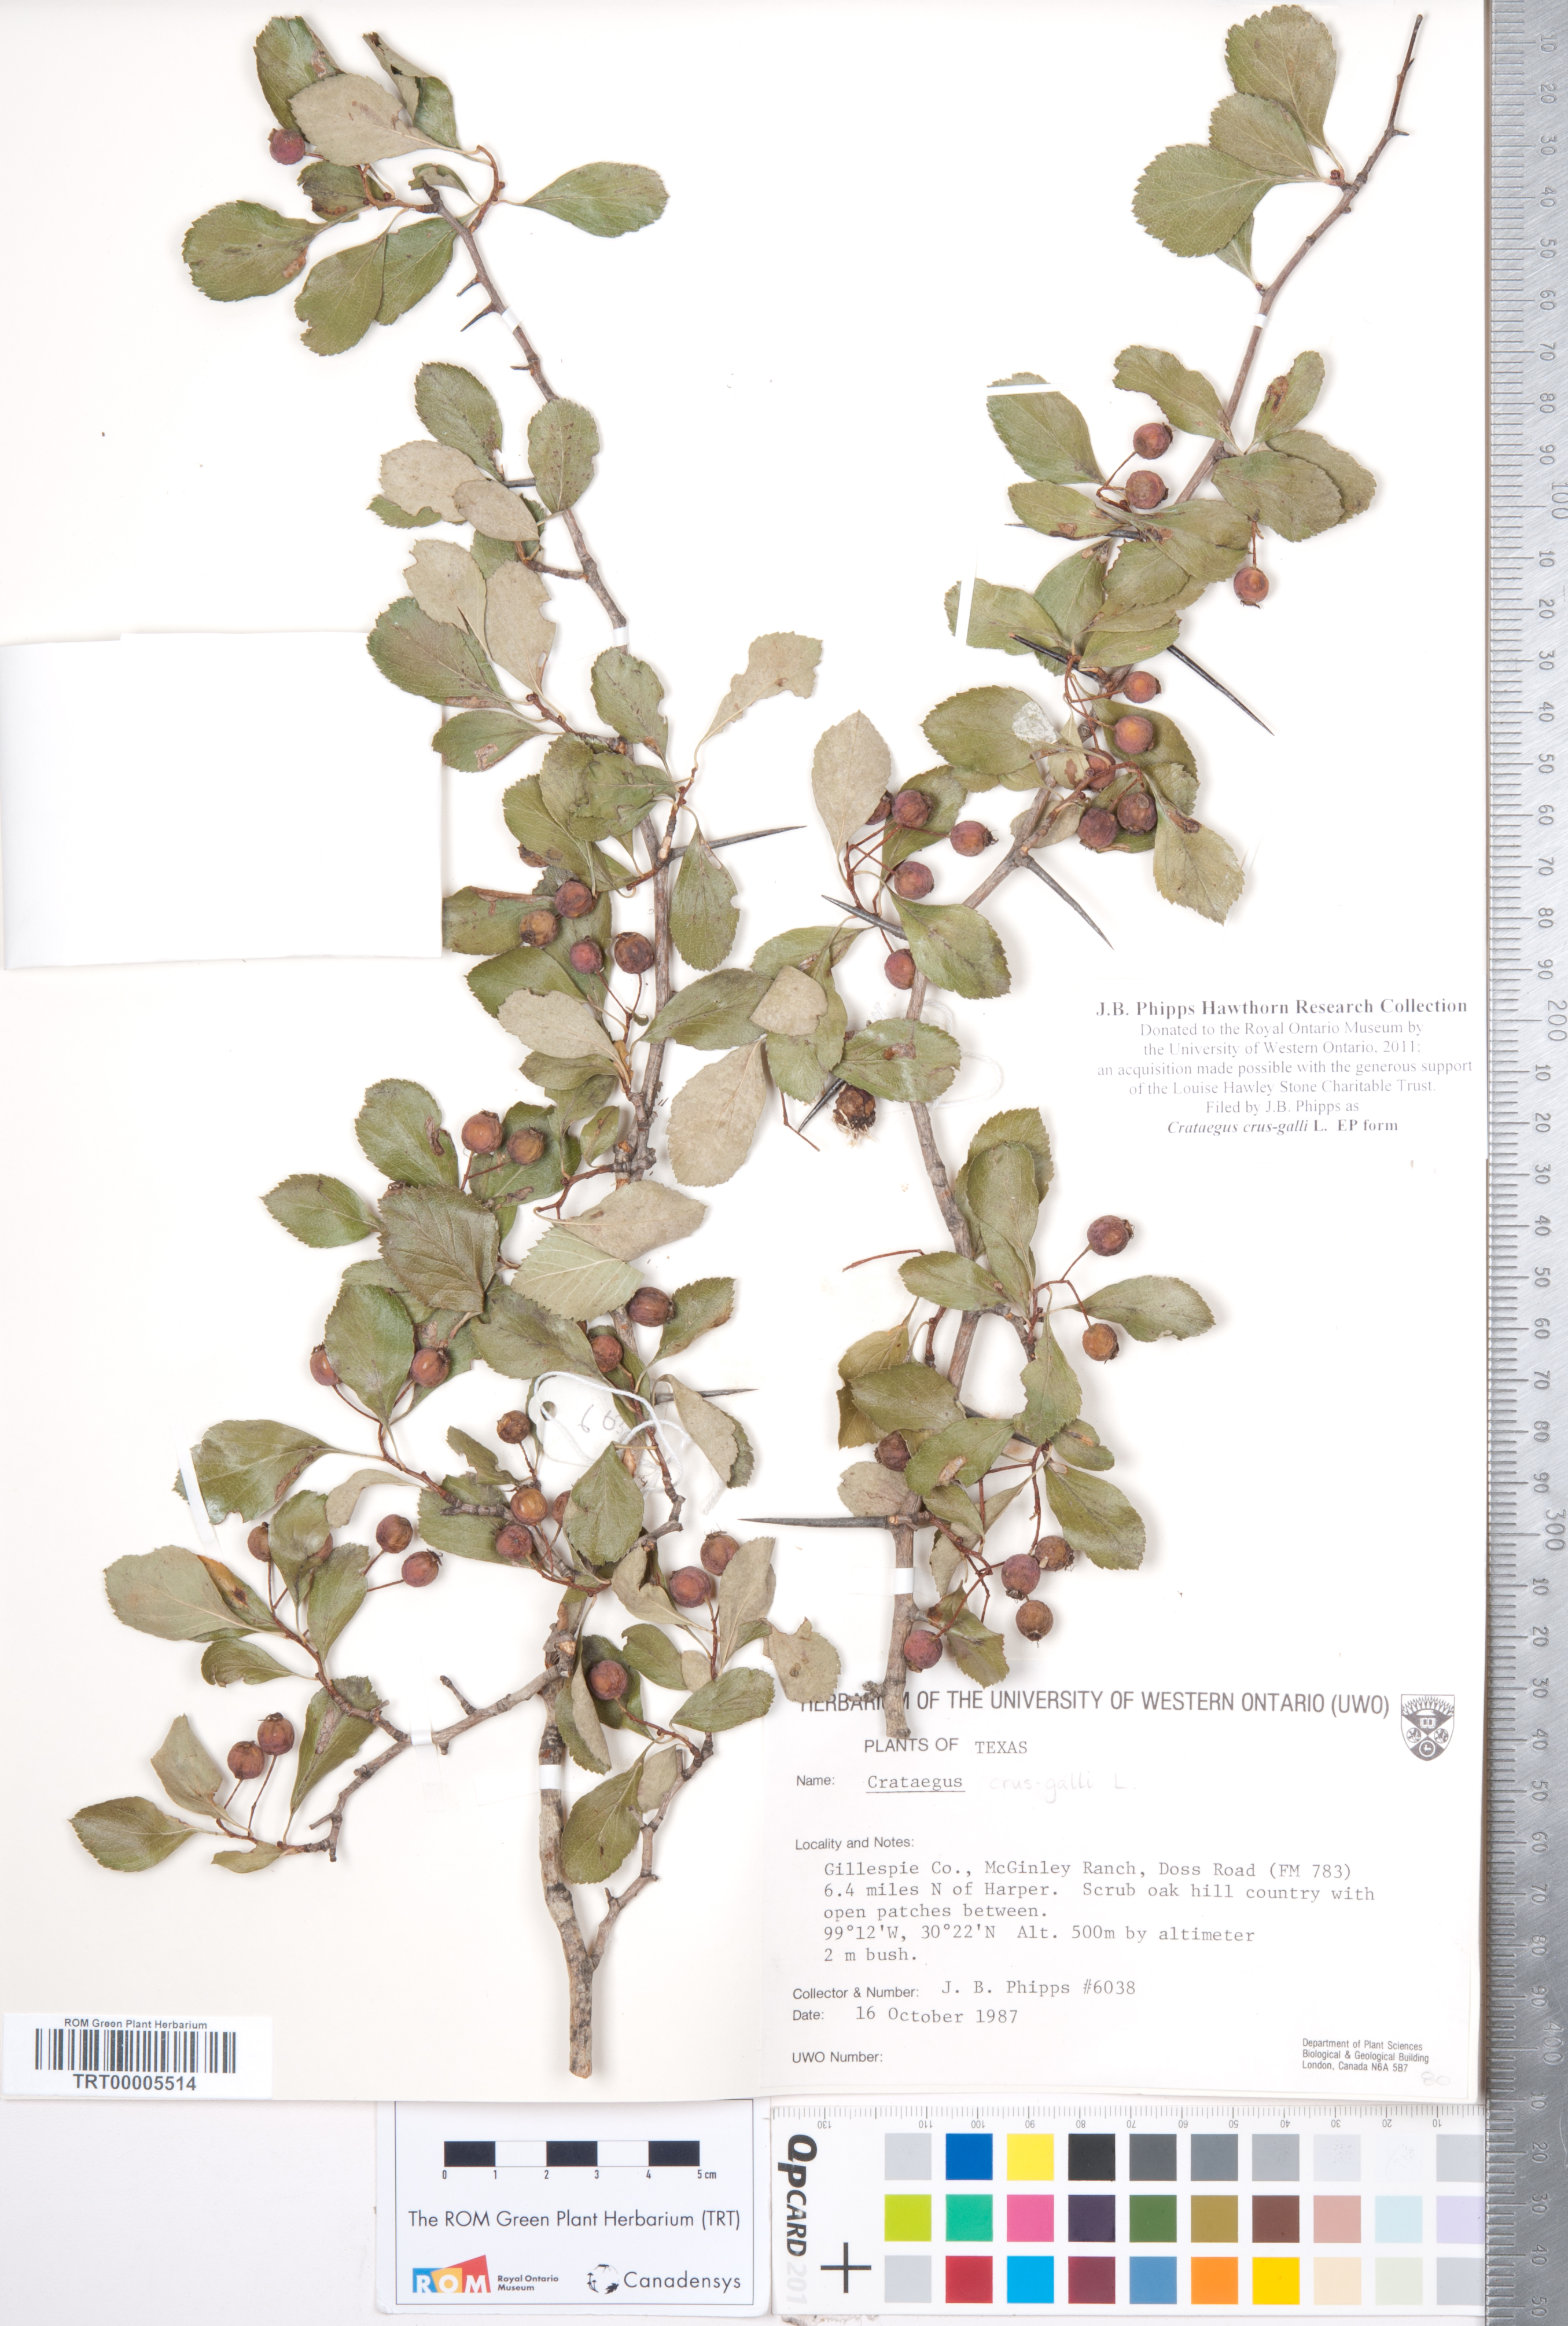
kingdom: Plantae
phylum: Tracheophyta
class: Magnoliopsida
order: Rosales
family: Rosaceae
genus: Crataegus
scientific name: Crataegus crus-galli
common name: Cockspurthorn
